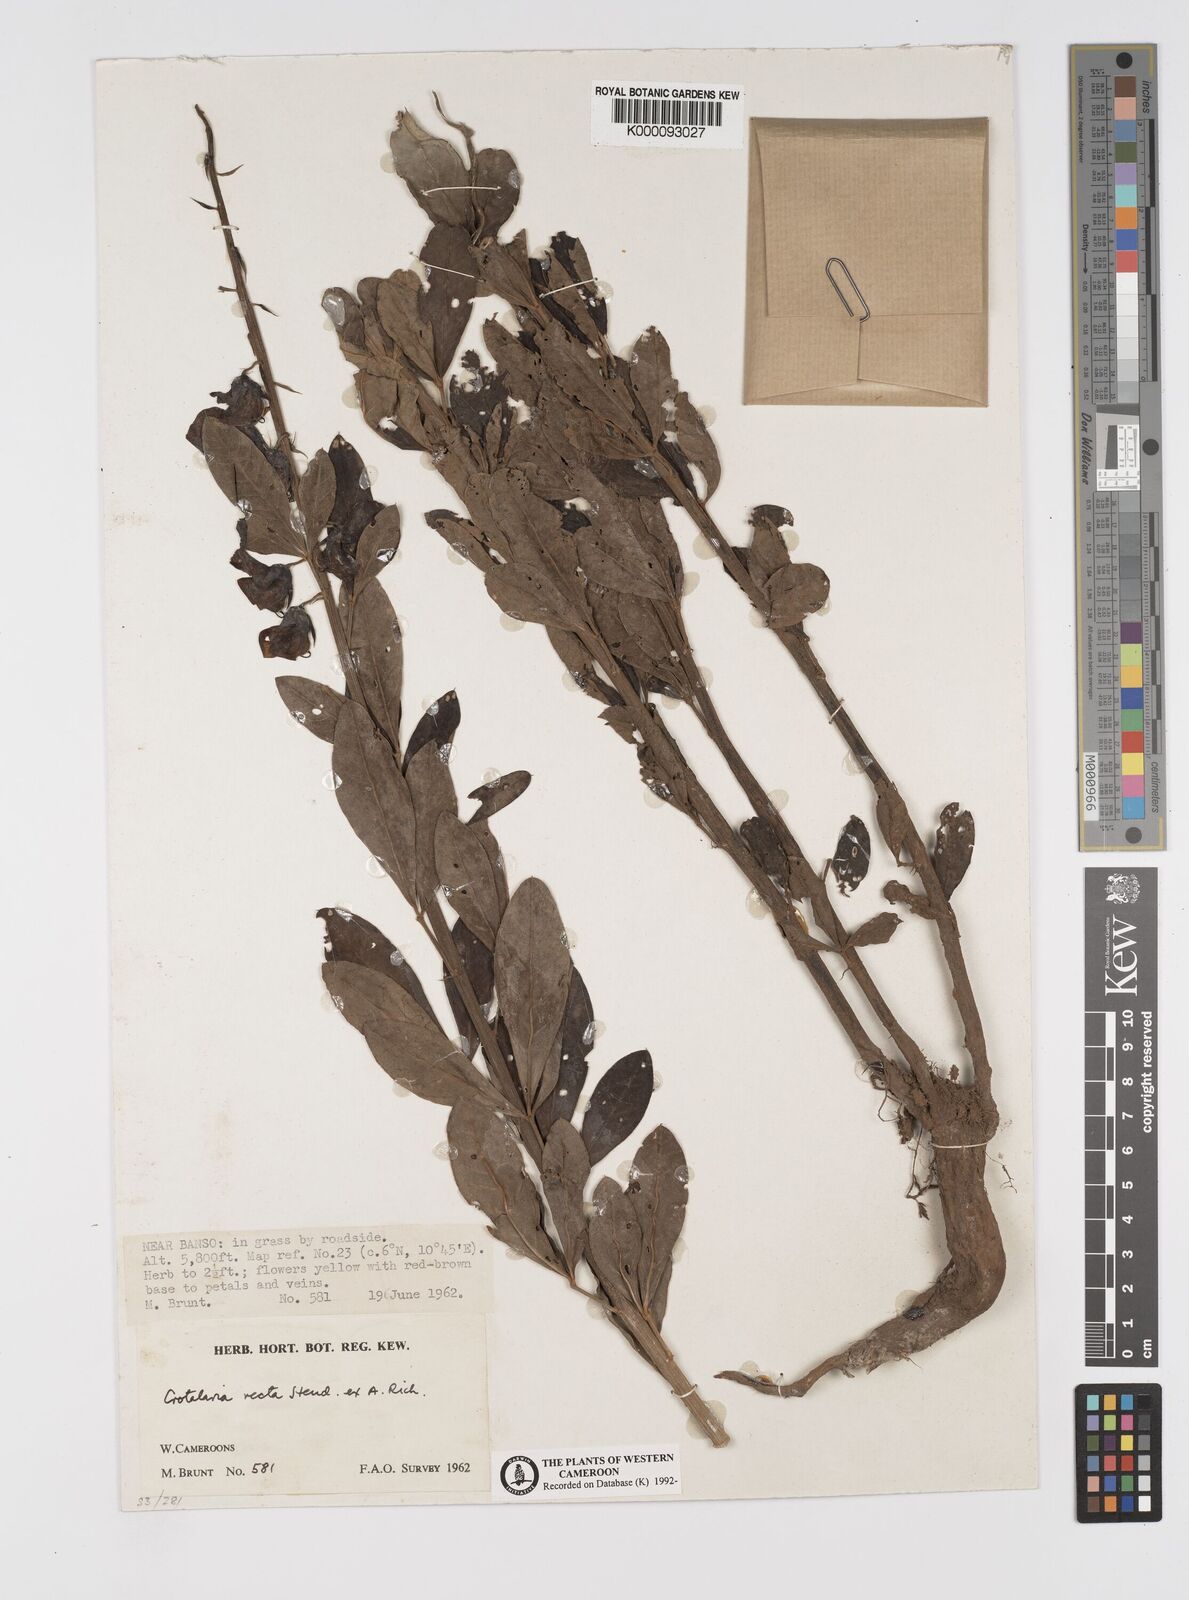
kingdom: Plantae
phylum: Tracheophyta
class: Magnoliopsida
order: Fabales
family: Fabaceae
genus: Crotalaria
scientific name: Crotalaria recta
